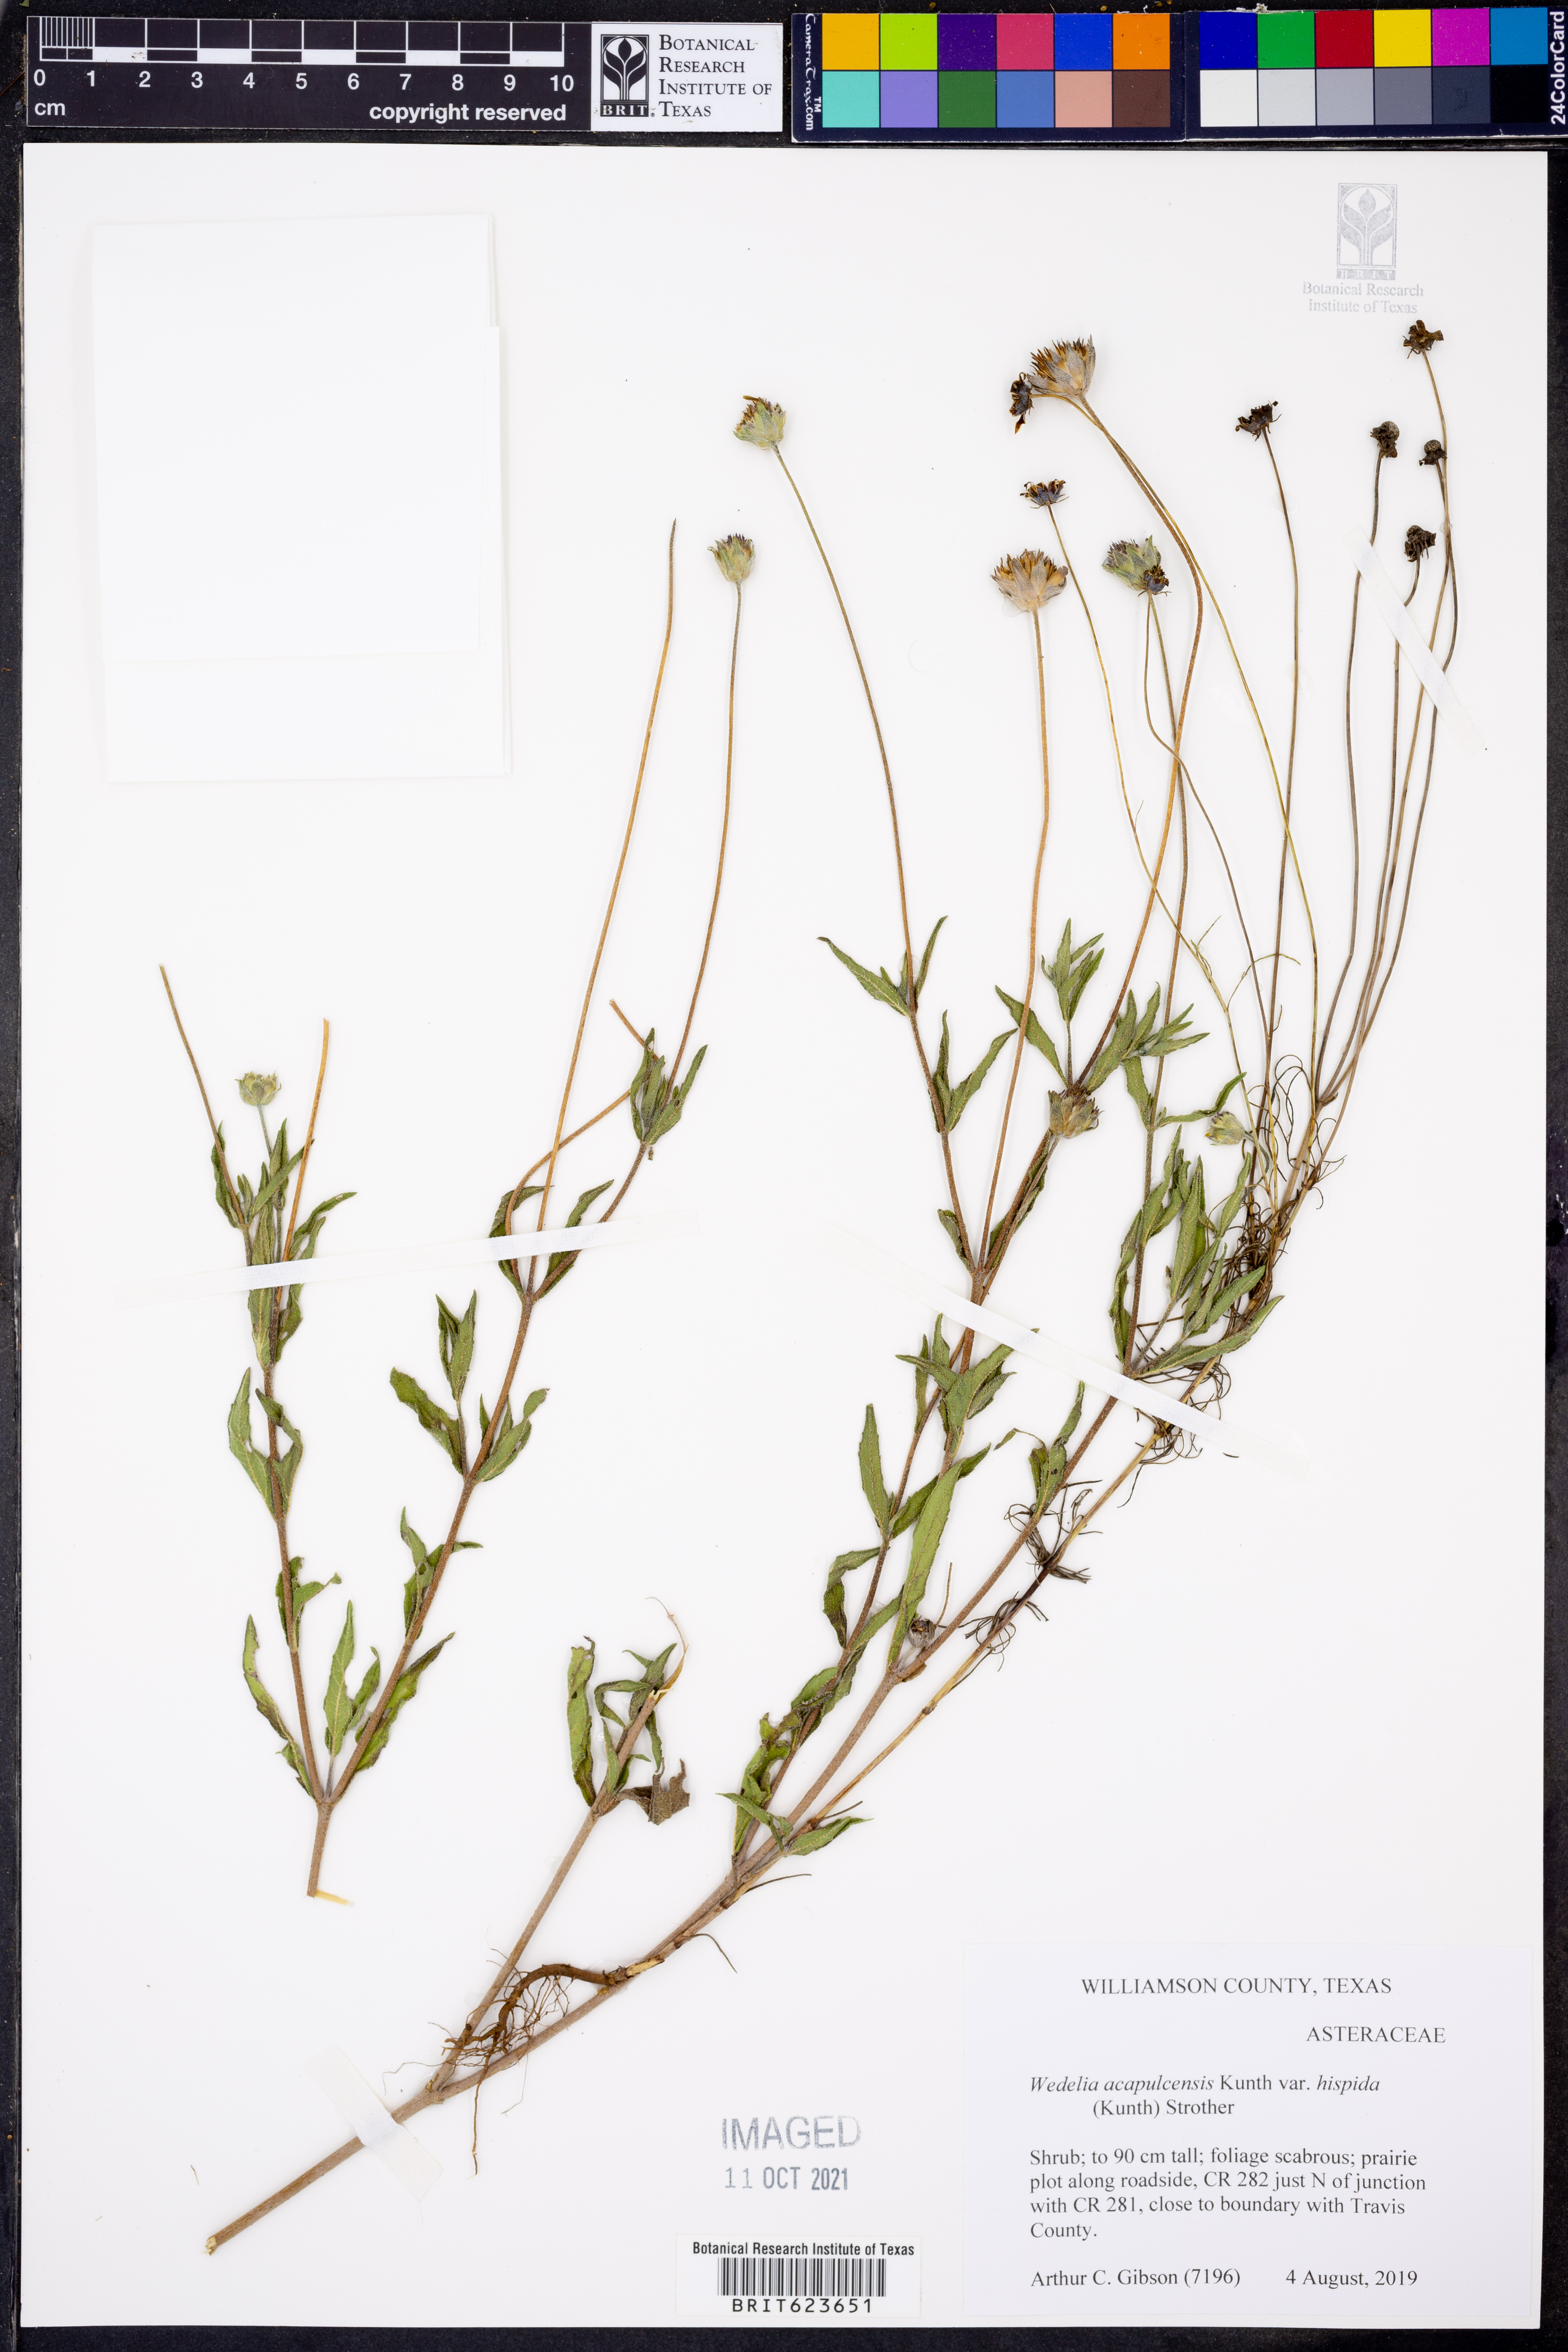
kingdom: Plantae
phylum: Tracheophyta
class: Magnoliopsida
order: Asterales
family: Asteraceae
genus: Wedelia
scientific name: Wedelia acapulcensis
